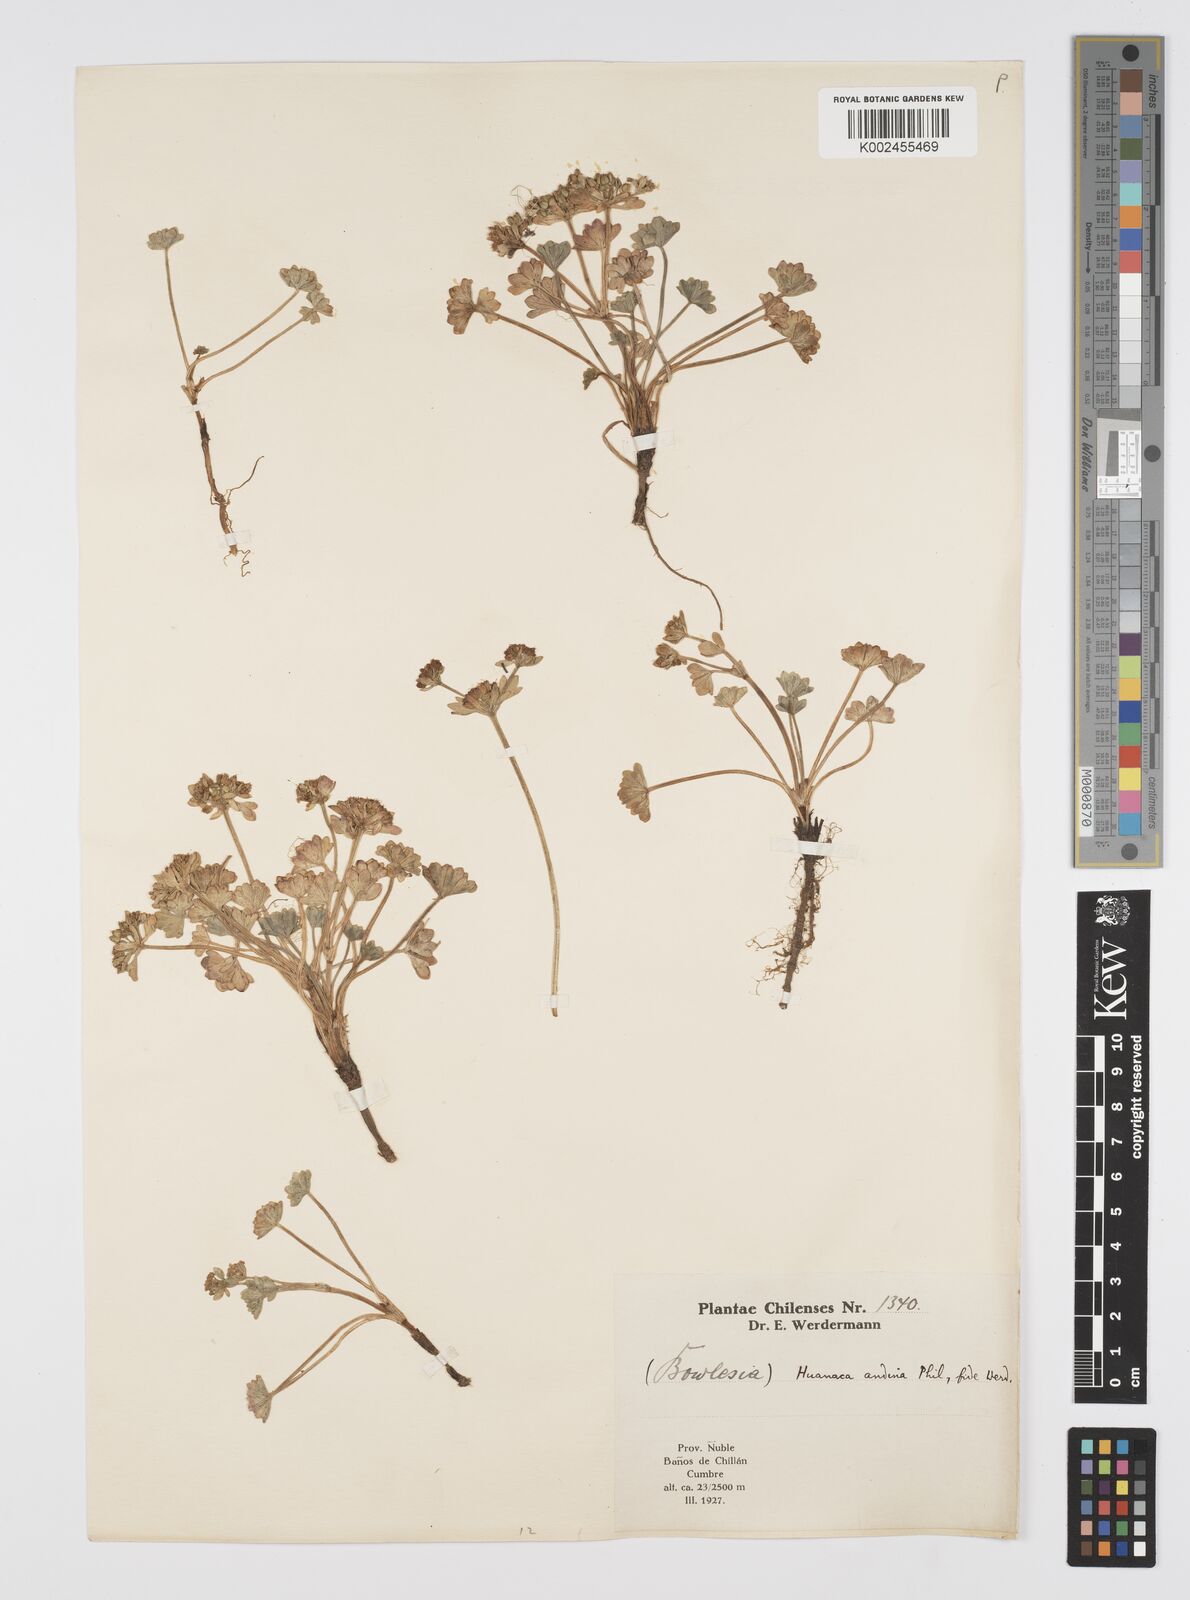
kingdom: Plantae
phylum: Tracheophyta
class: Magnoliopsida
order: Apiales
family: Apiaceae
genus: Azorella
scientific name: Azorella andina
